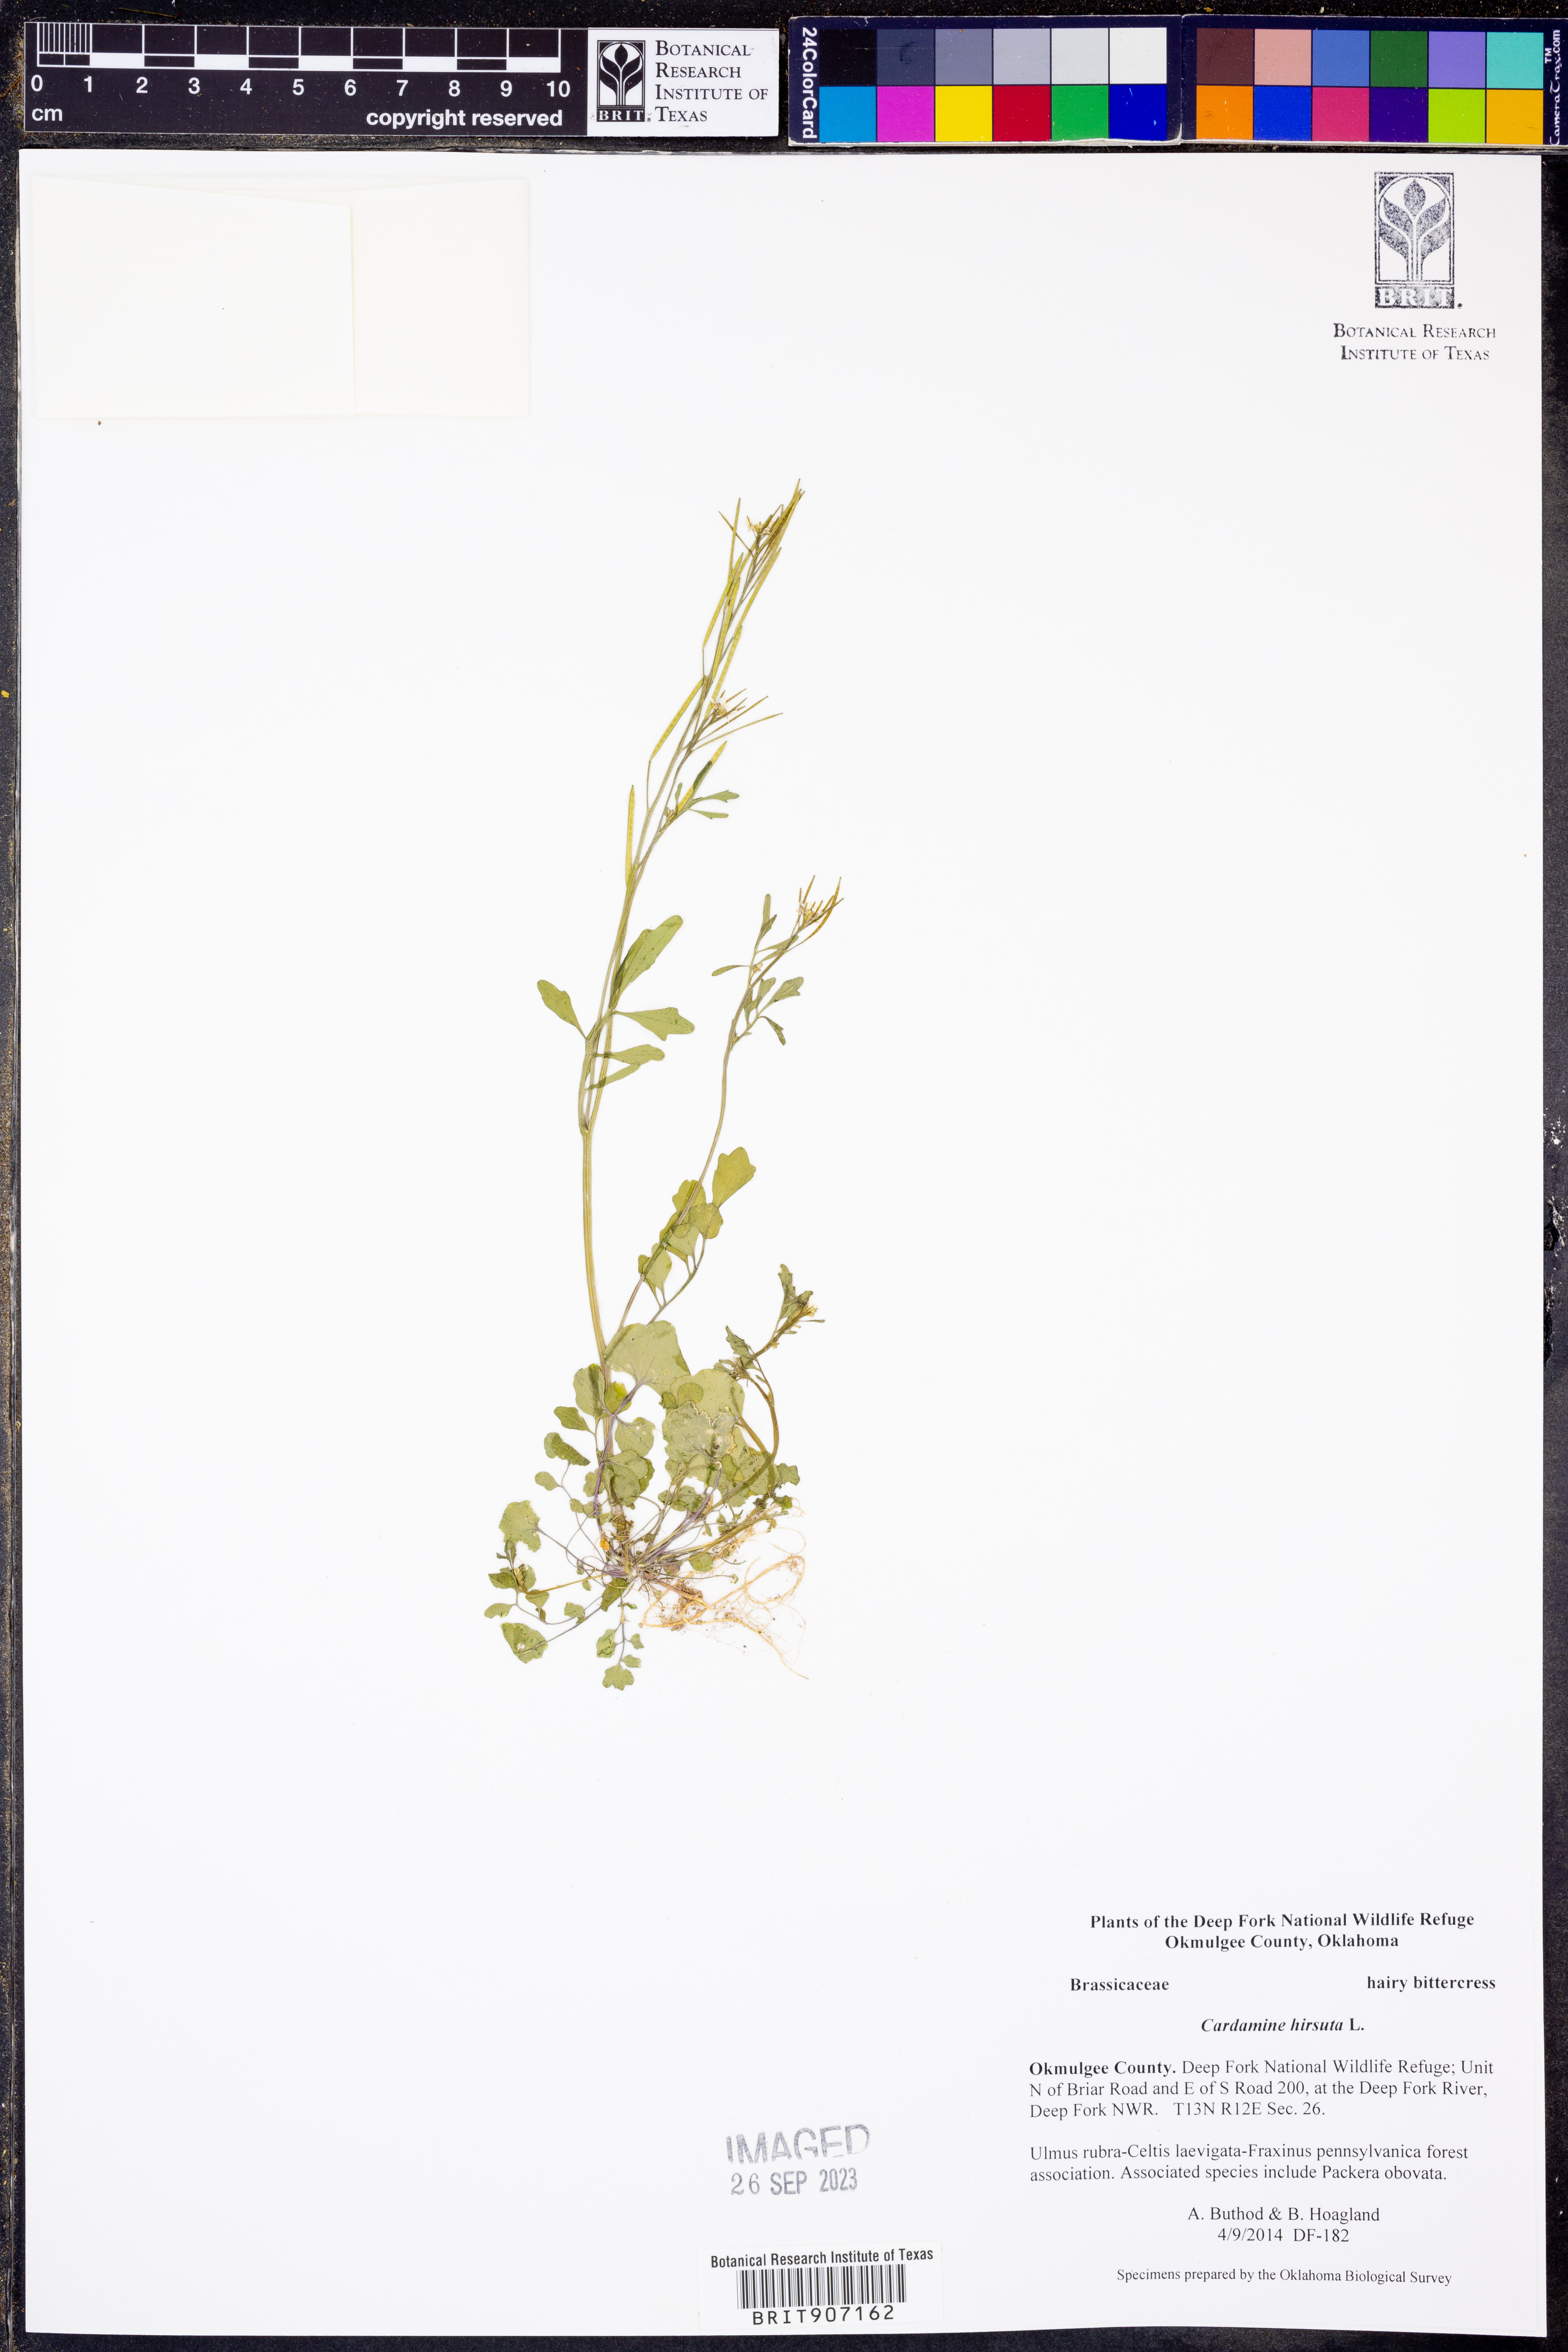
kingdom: Plantae
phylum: Tracheophyta
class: Magnoliopsida
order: Brassicales
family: Brassicaceae
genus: Cardamine
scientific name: Cardamine hirsuta
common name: Hairy bittercress
